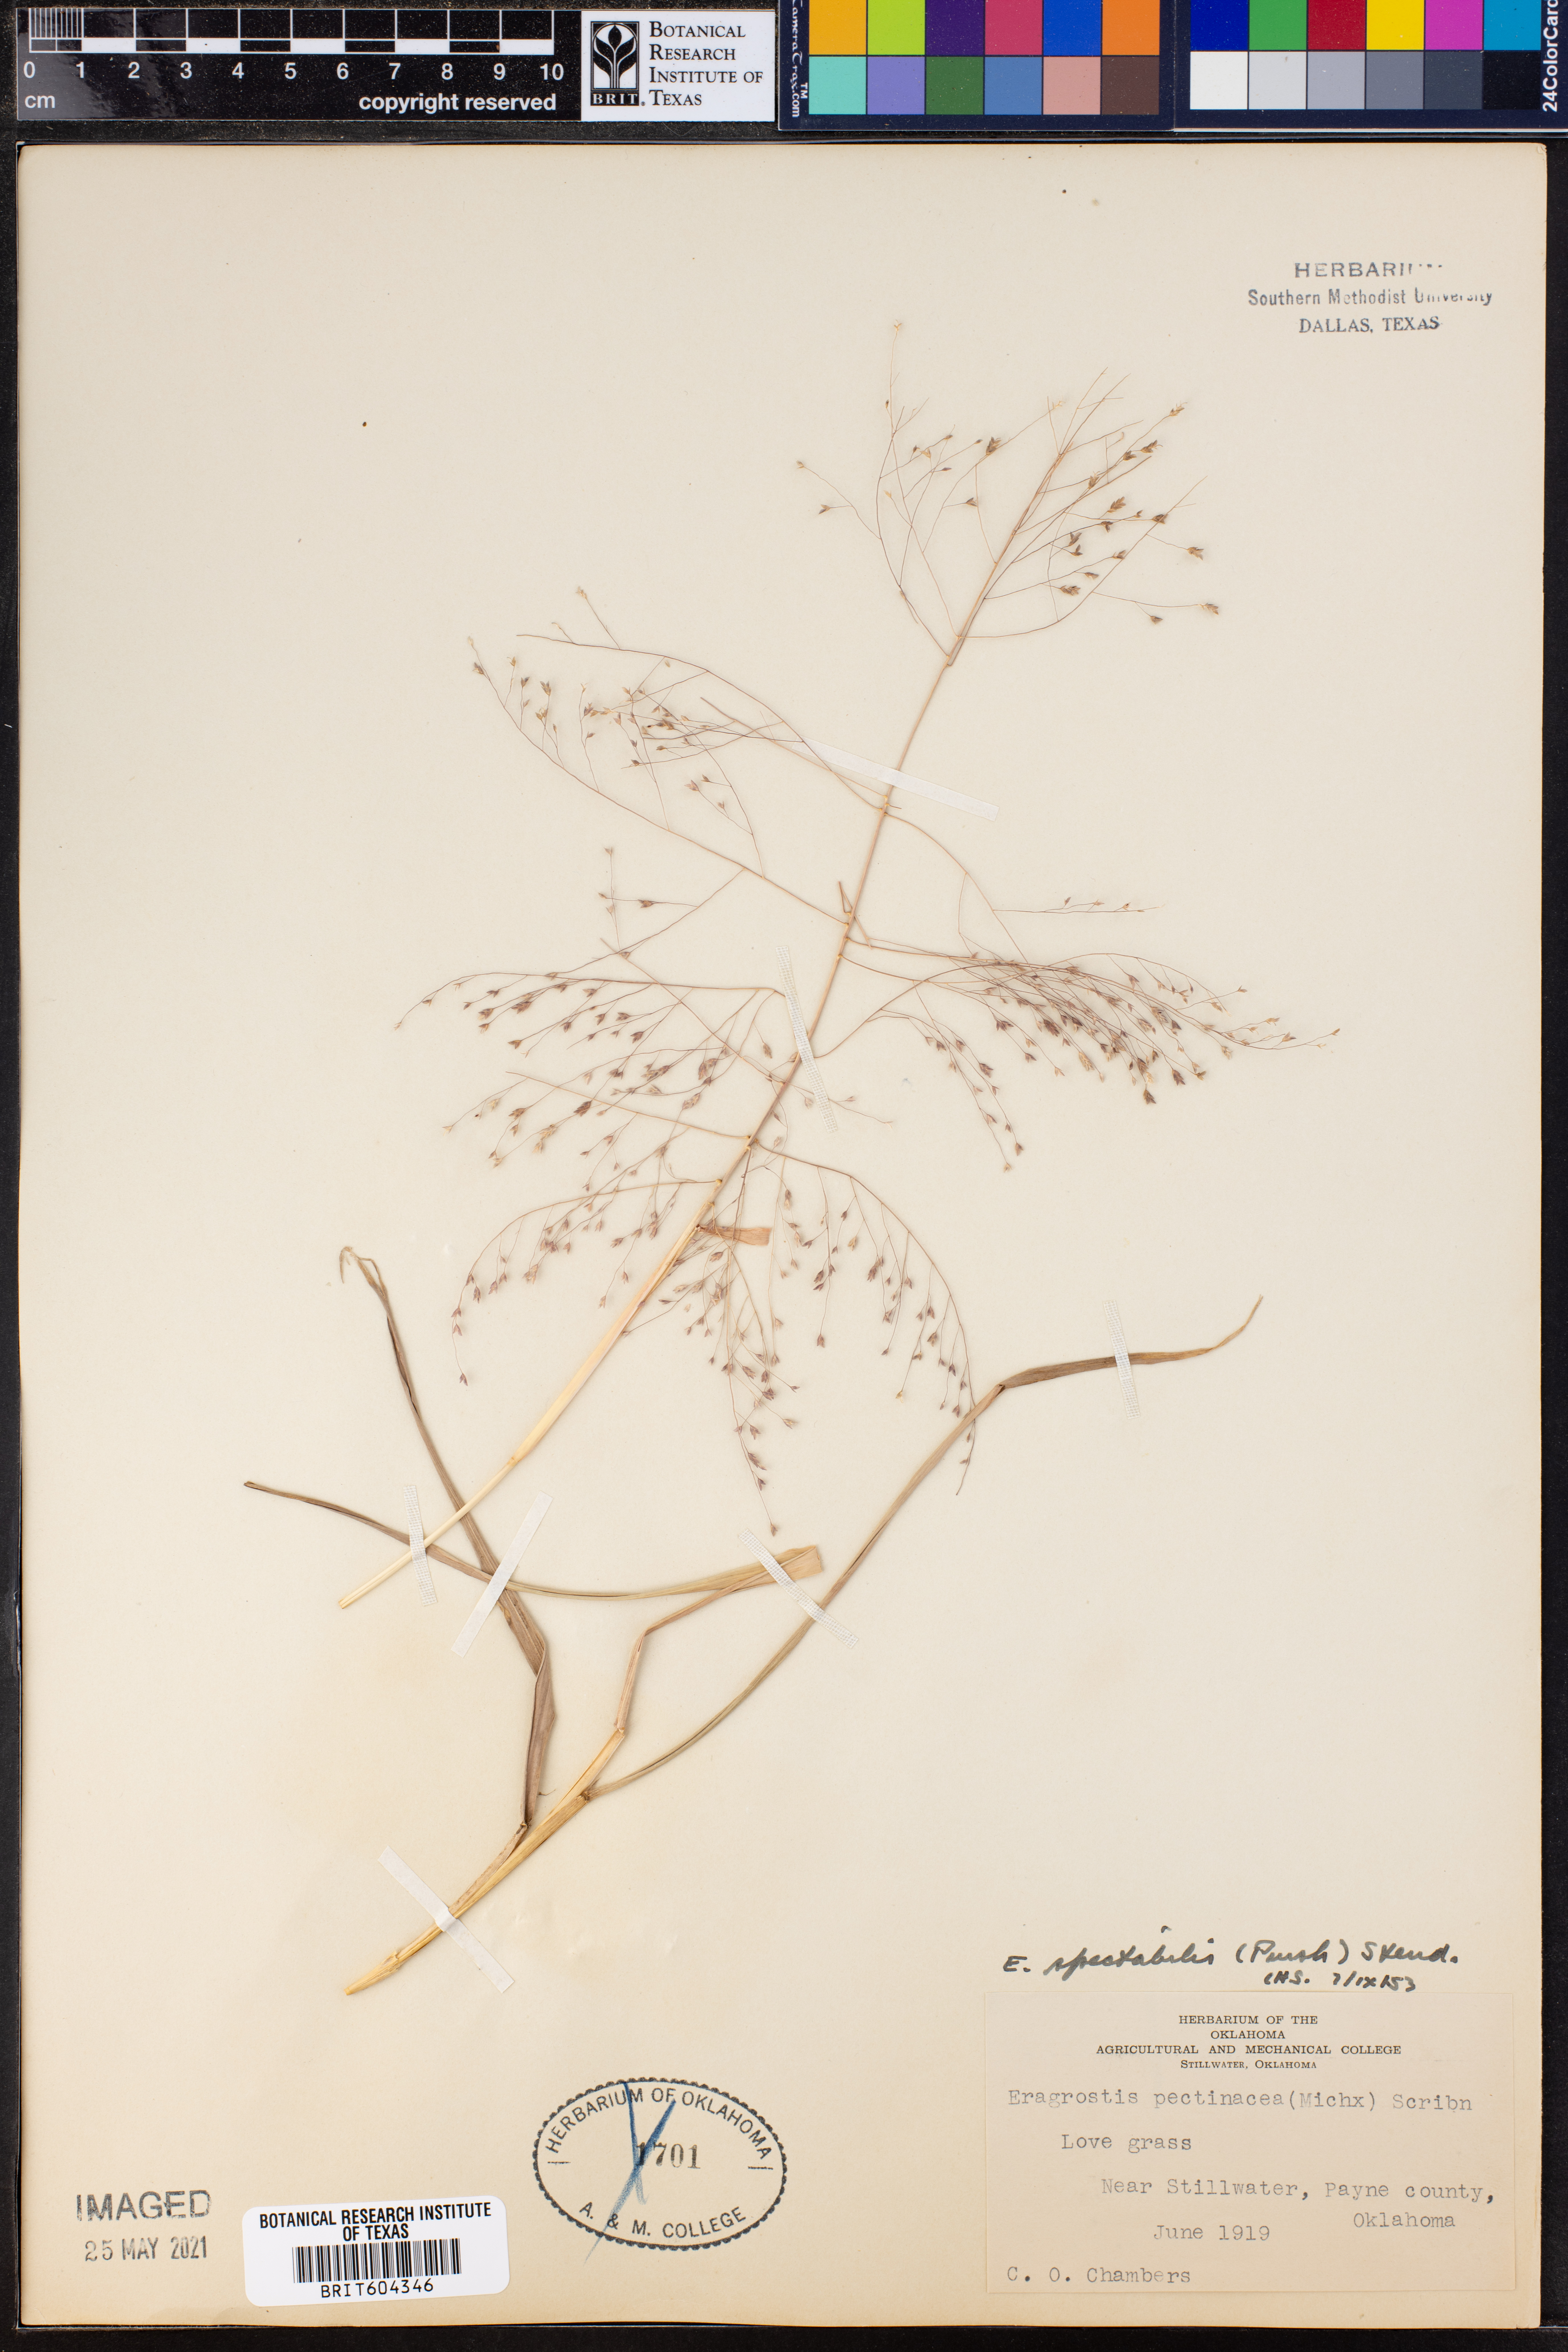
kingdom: Plantae
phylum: Tracheophyta
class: Liliopsida
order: Poales
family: Poaceae
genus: Eragrostis
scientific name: Eragrostis spectabilis
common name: Petticoat-climber
